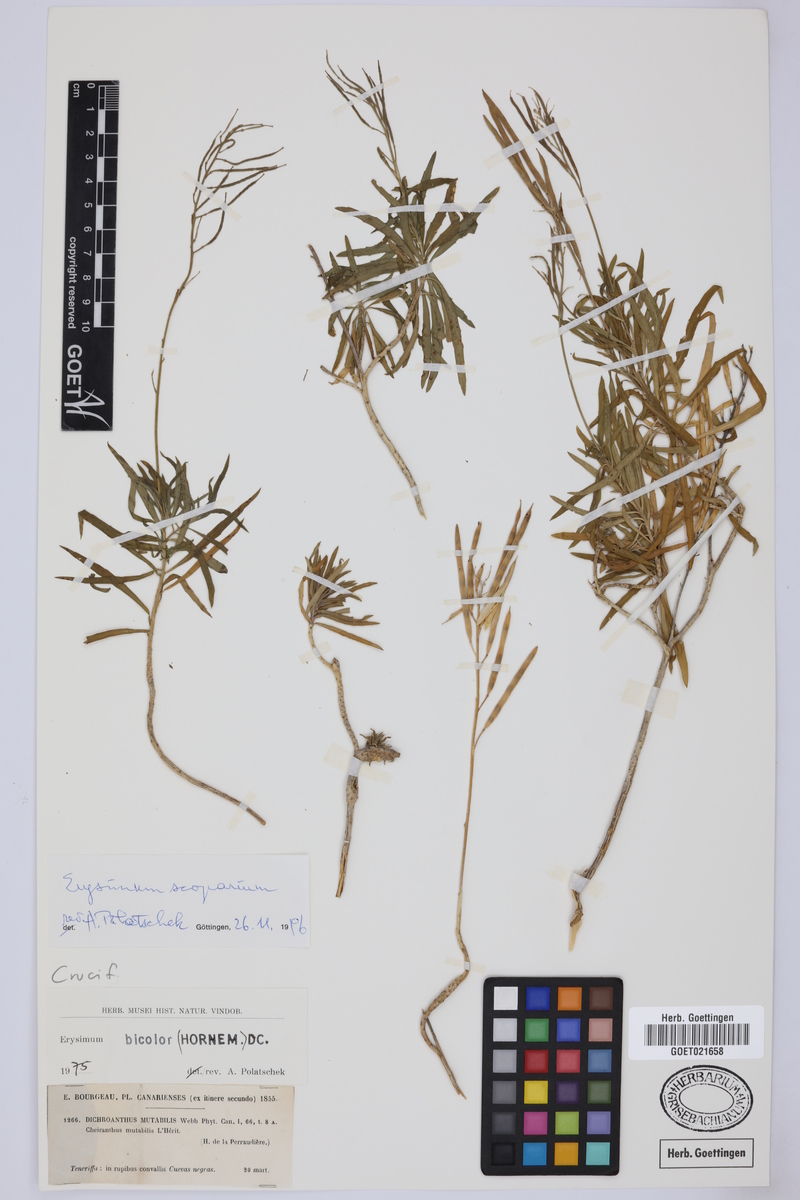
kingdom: Plantae
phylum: Tracheophyta
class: Magnoliopsida
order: Brassicales
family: Brassicaceae
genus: Erysimum
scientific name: Erysimum scoparium
